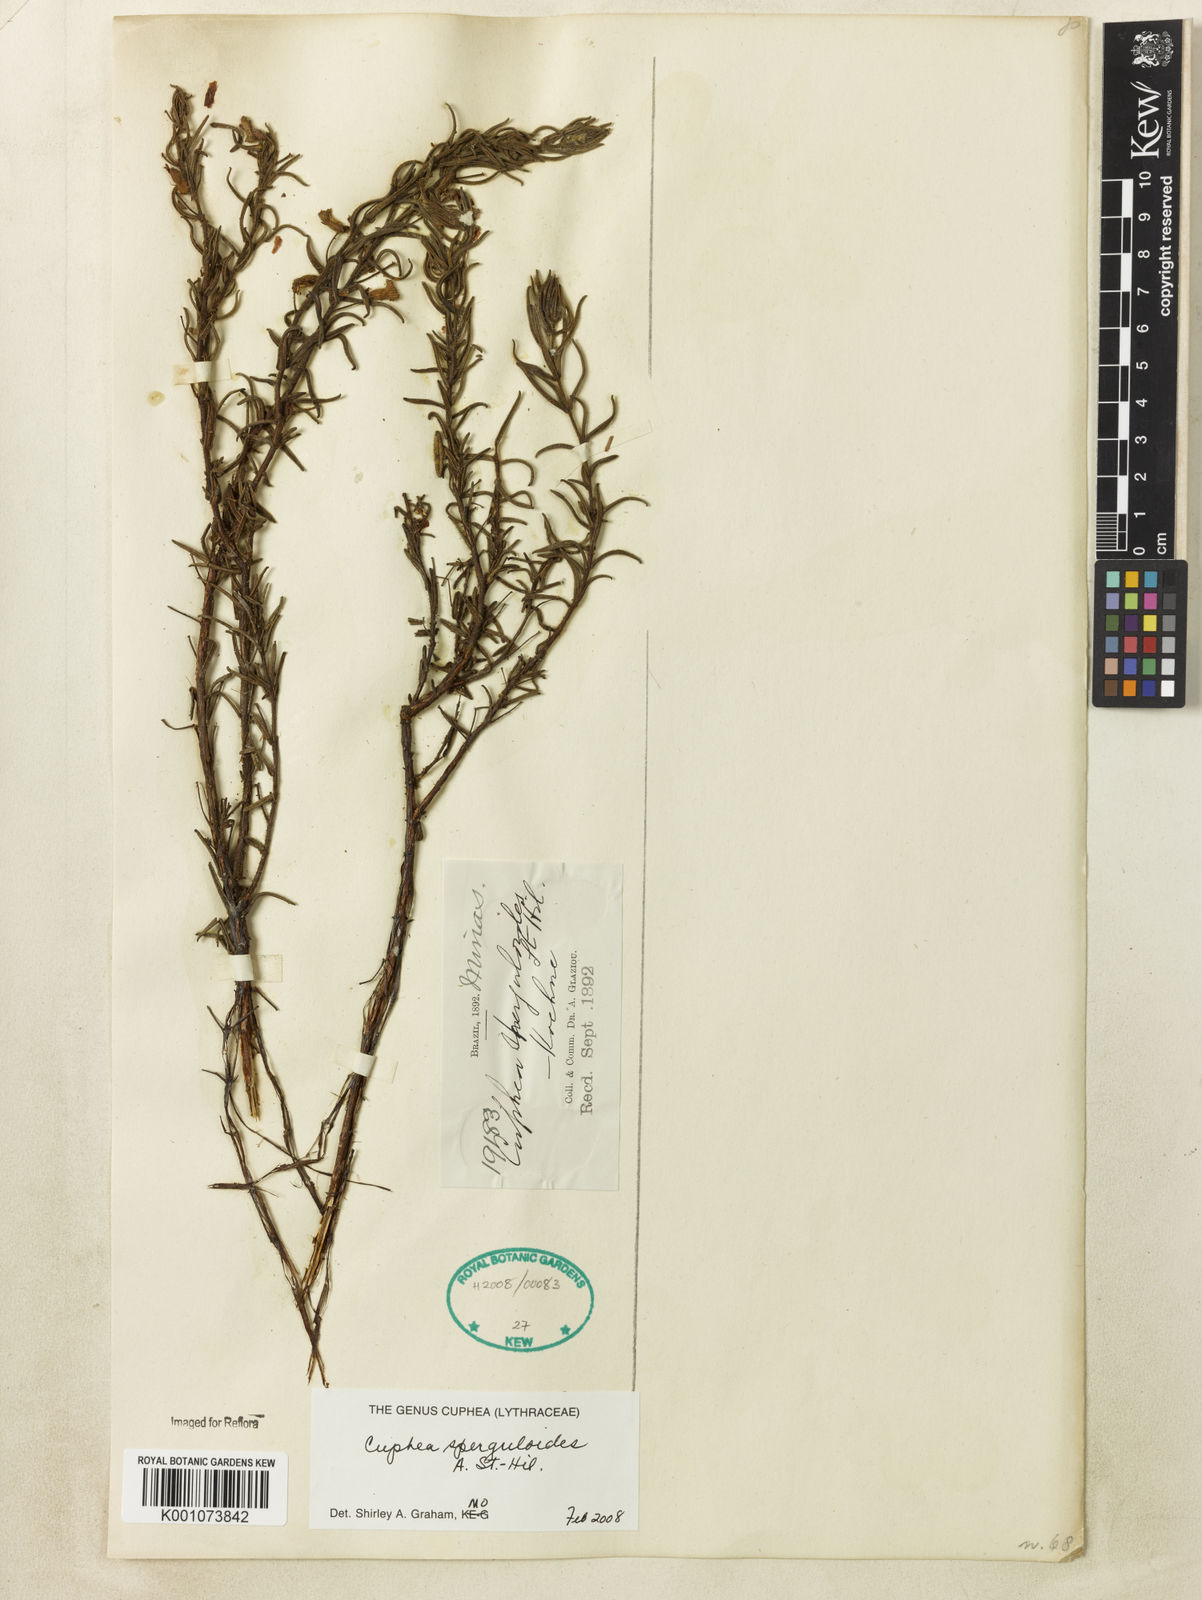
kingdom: Plantae
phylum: Tracheophyta
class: Magnoliopsida
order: Myrtales
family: Lythraceae
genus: Cuphea
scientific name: Cuphea sperguloides
